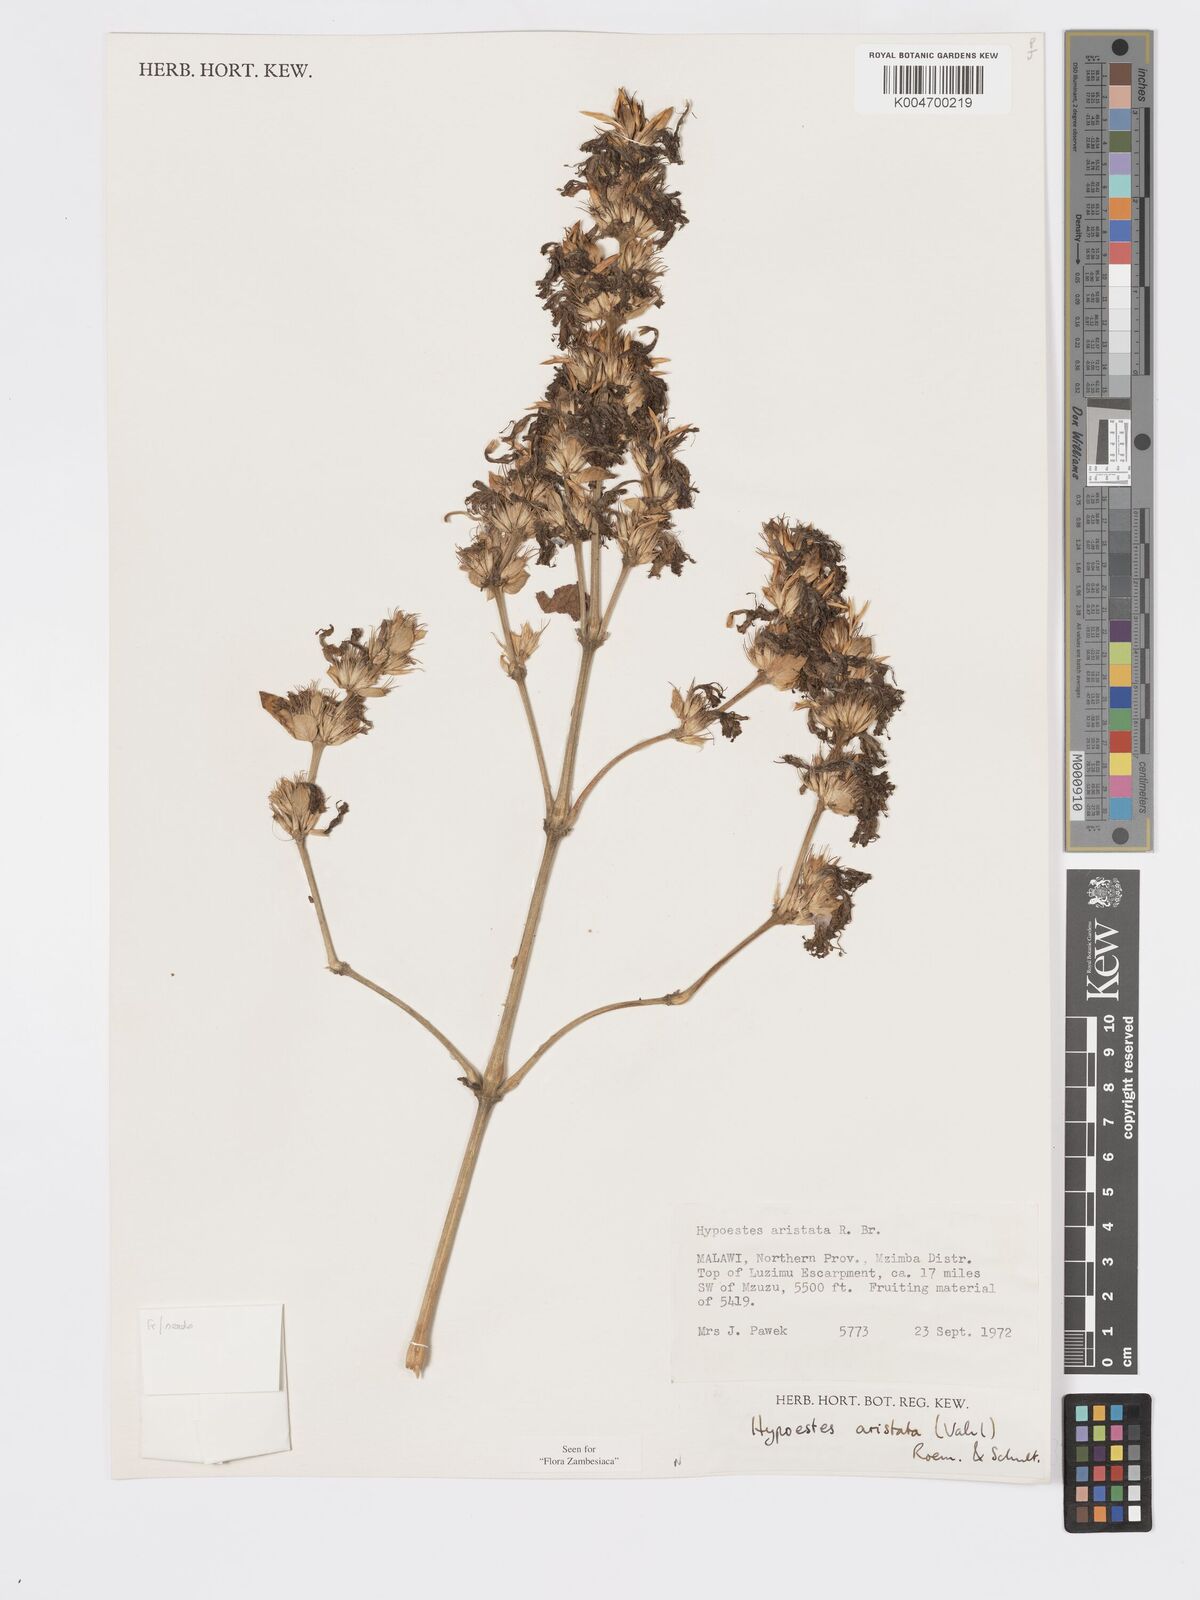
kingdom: Plantae
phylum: Tracheophyta
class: Magnoliopsida
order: Lamiales
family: Acanthaceae
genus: Hypoestes
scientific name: Hypoestes aristata
